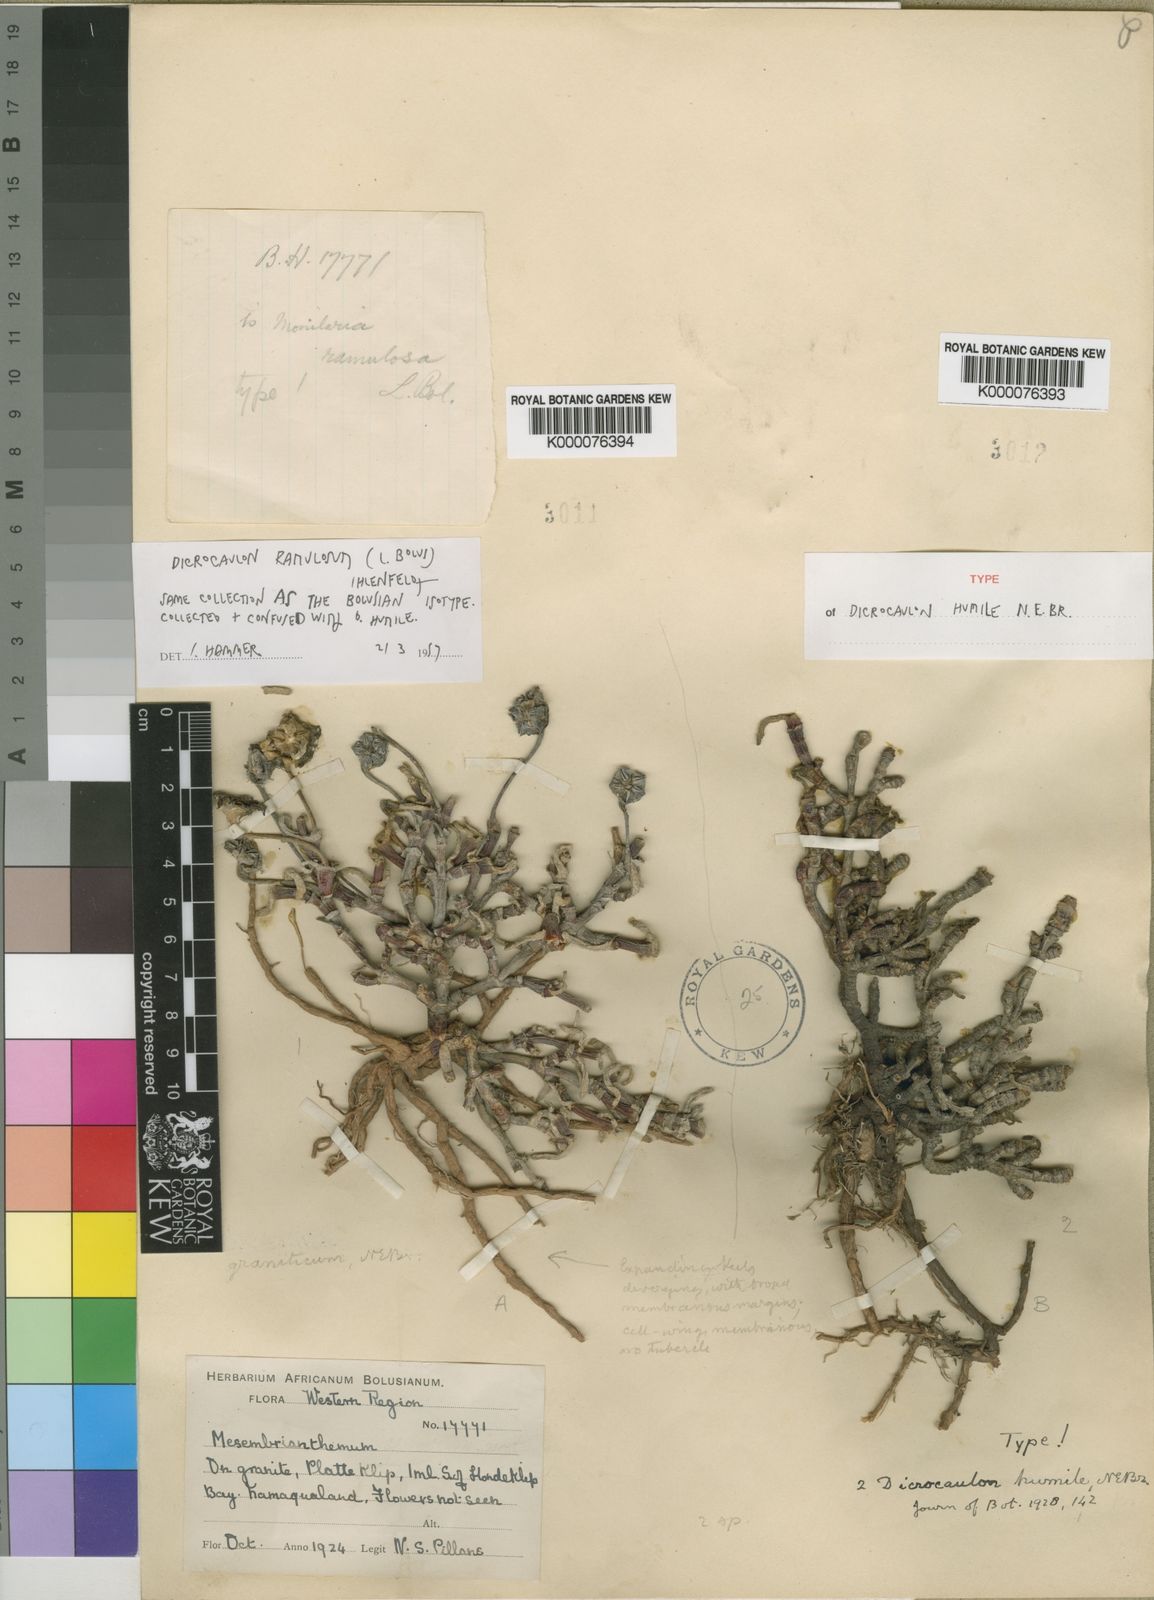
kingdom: Plantae
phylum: Tracheophyta
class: Magnoliopsida
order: Caryophyllales
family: Aizoaceae
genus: Dicrocaulon
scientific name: Dicrocaulon ramulosum
